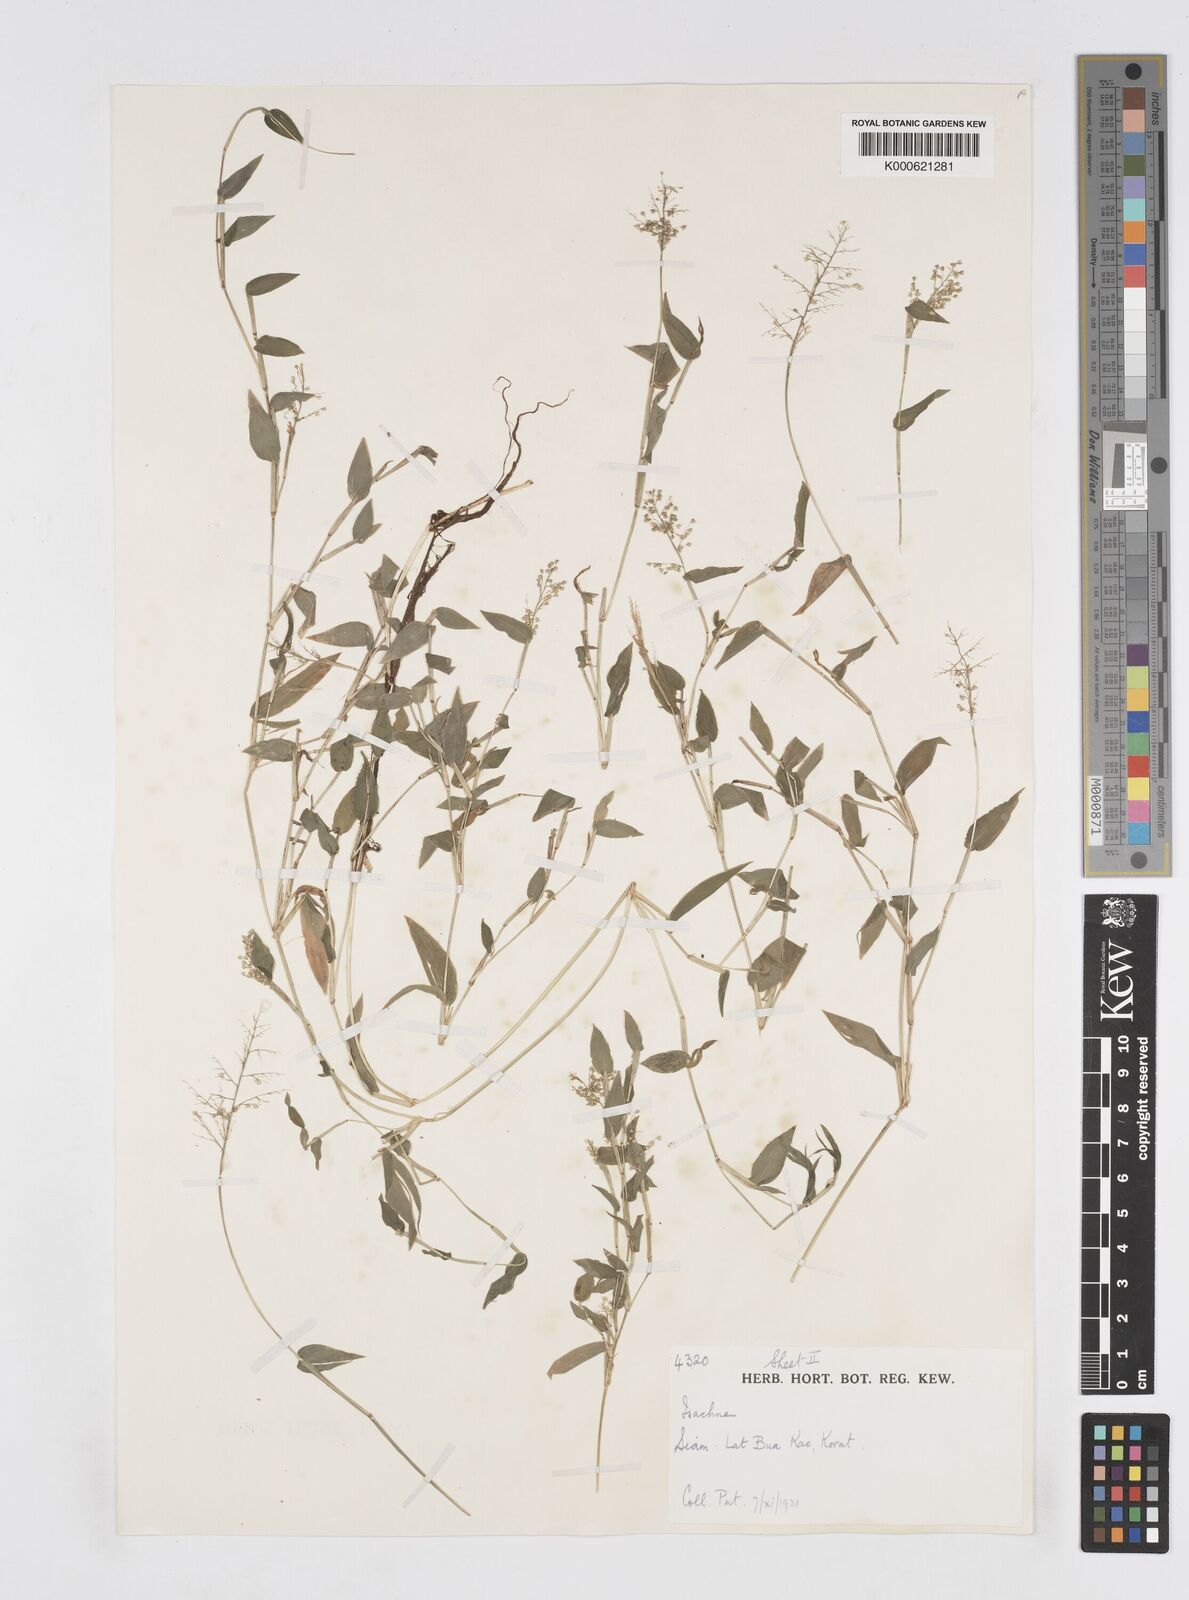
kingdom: Plantae
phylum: Tracheophyta
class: Liliopsida
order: Poales
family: Poaceae
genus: Isachne
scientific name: Isachne pulchella
